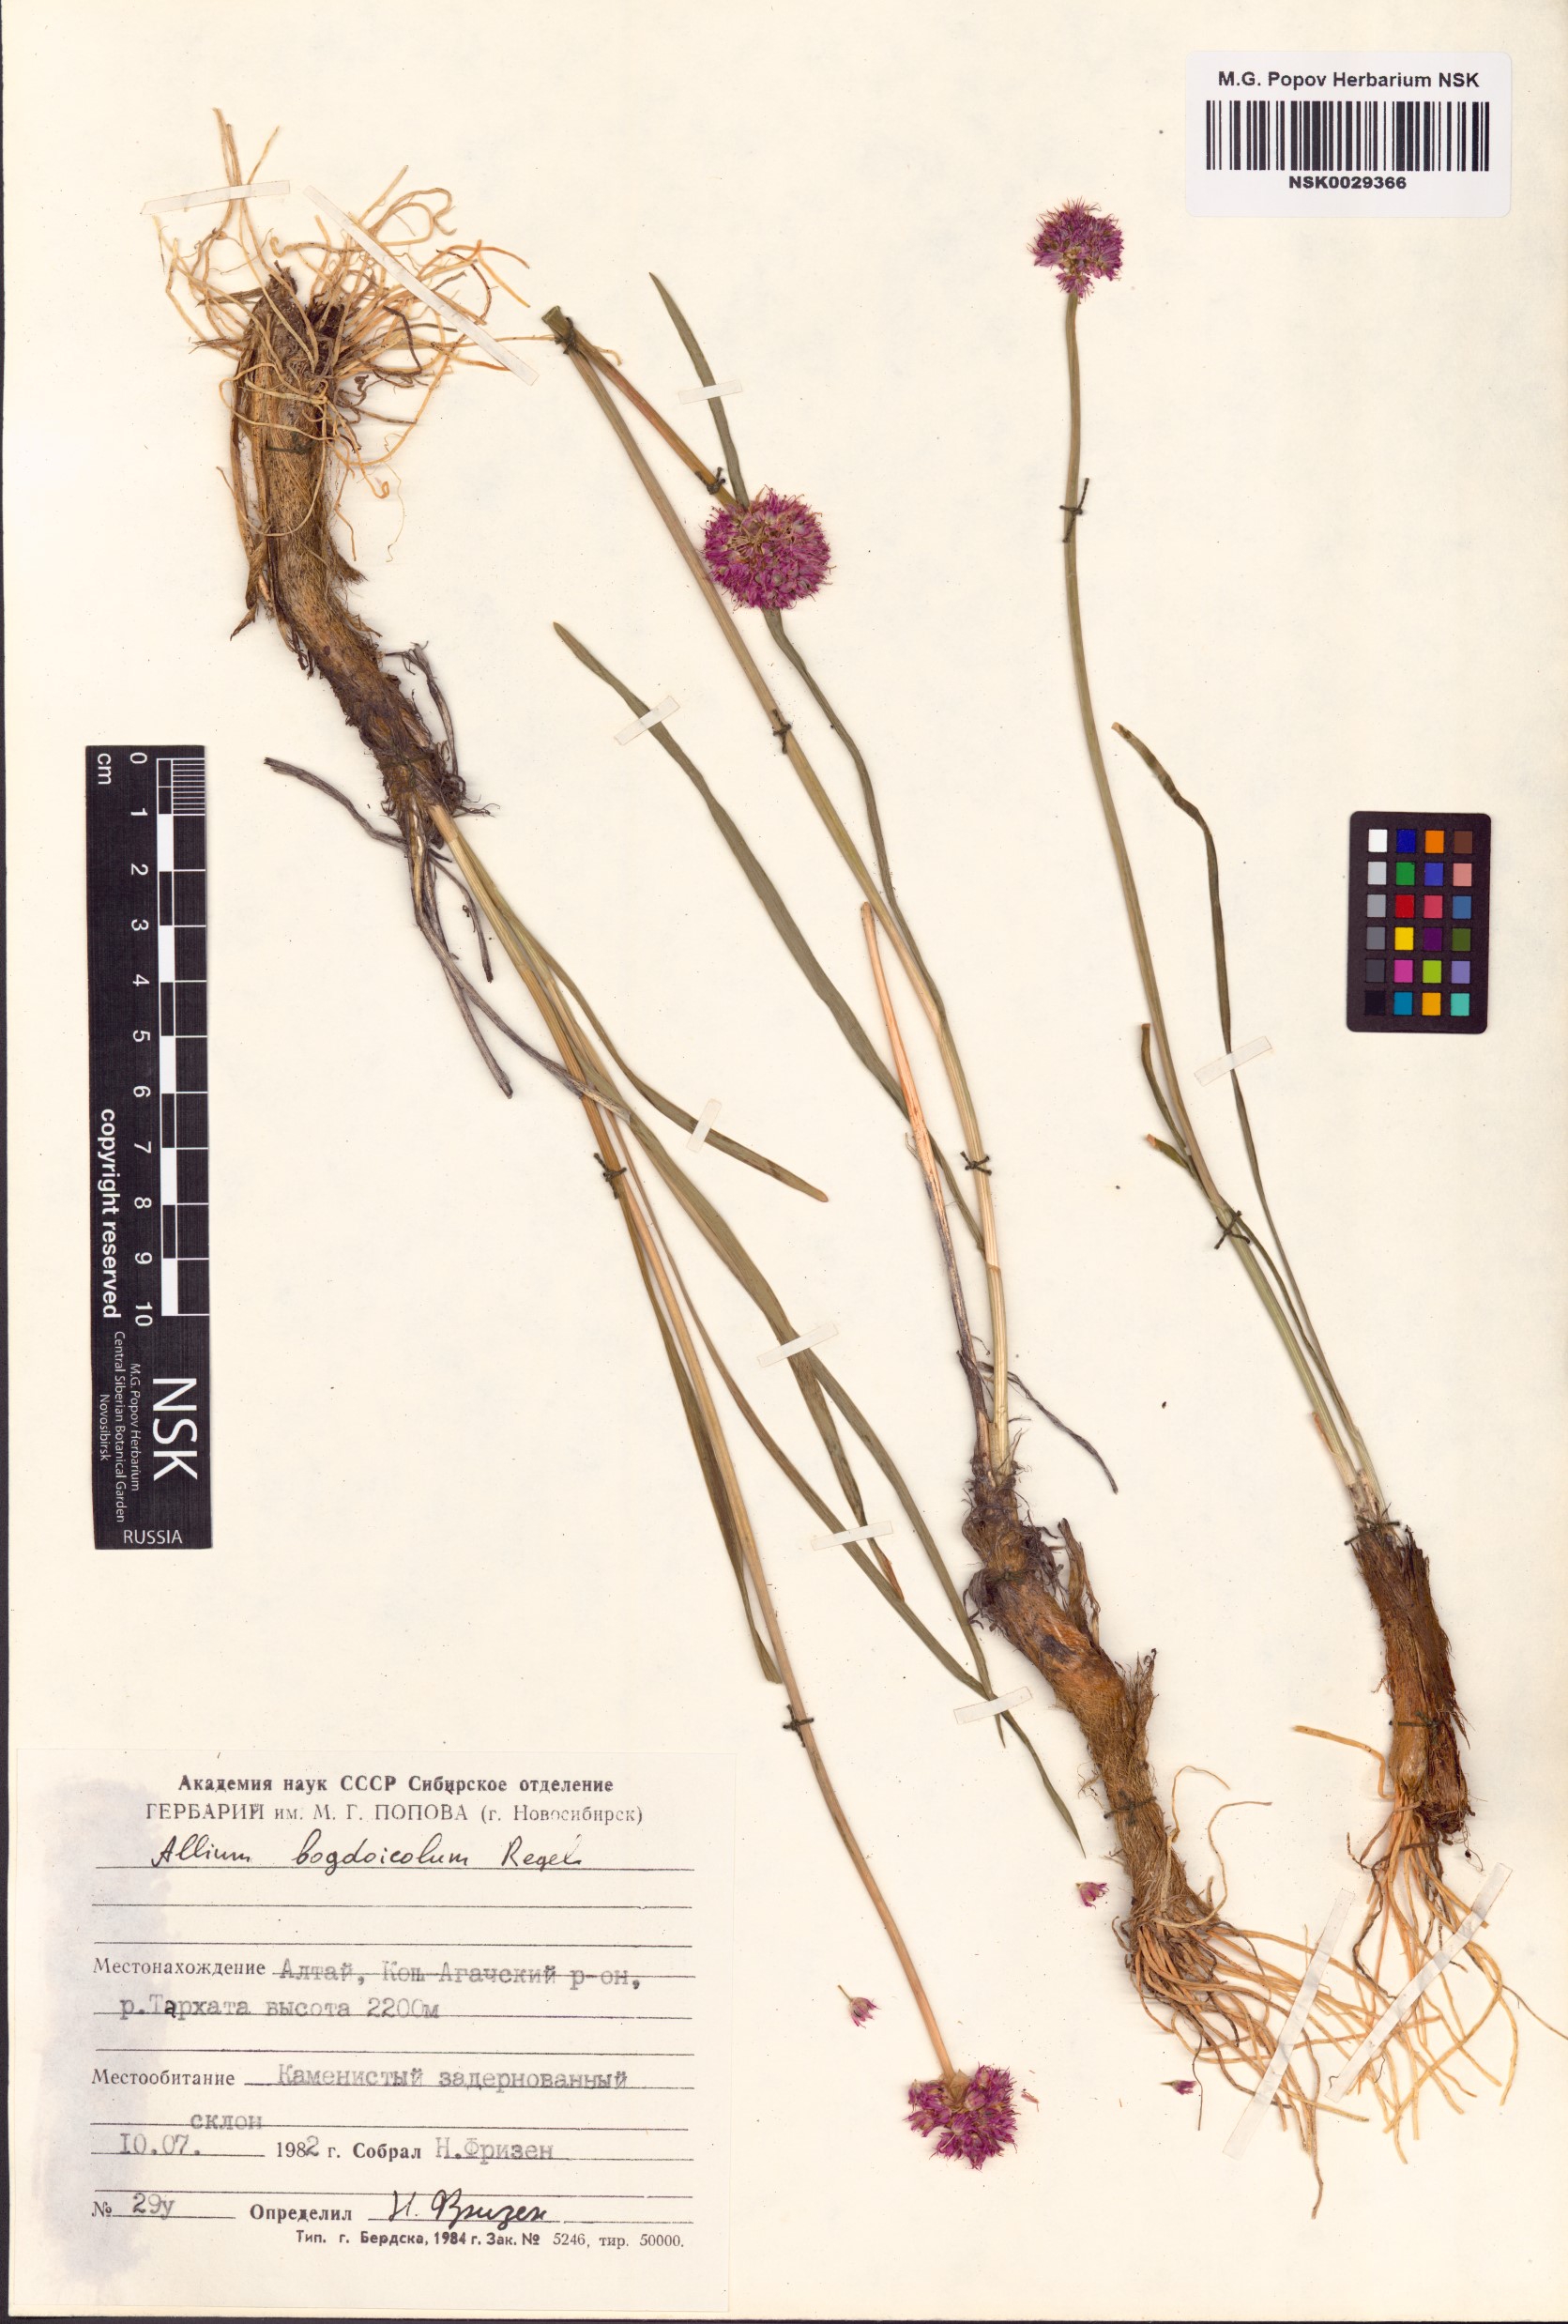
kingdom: Plantae
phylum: Tracheophyta
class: Liliopsida
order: Asparagales
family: Amaryllidaceae
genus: Allium
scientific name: Allium schrenkii
